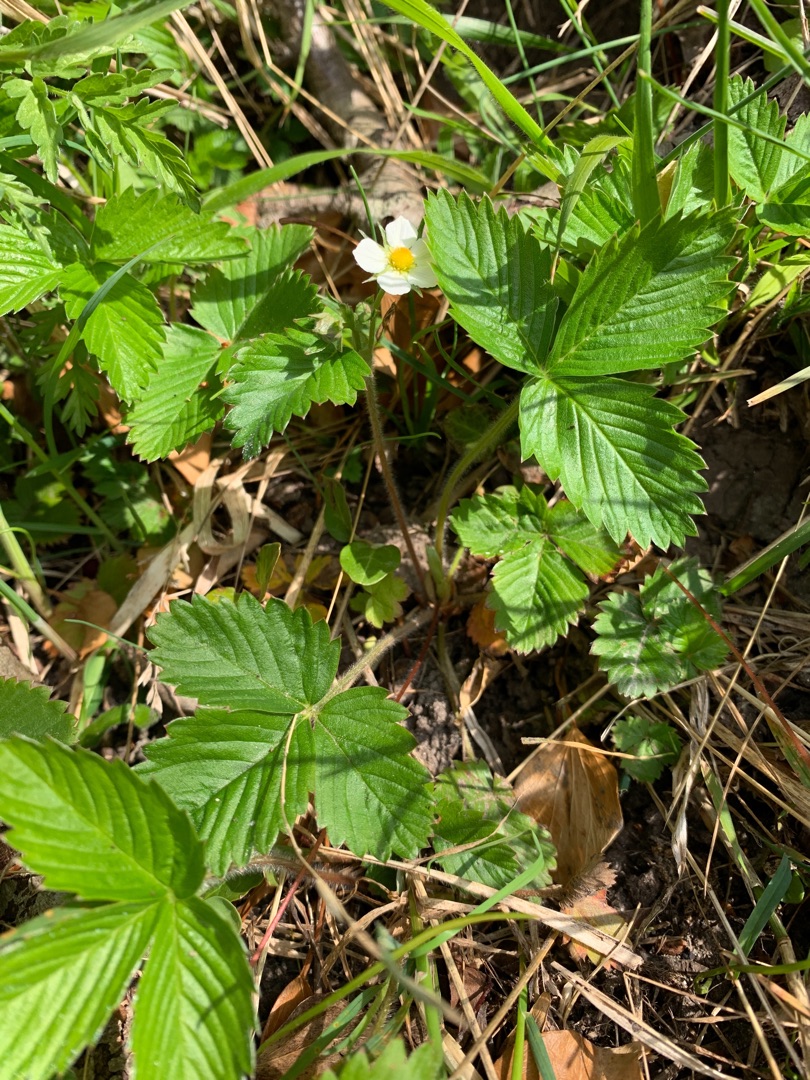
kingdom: Plantae
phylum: Tracheophyta
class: Magnoliopsida
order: Rosales
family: Rosaceae
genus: Fragaria
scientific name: Fragaria vesca
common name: Skov-jordbær
